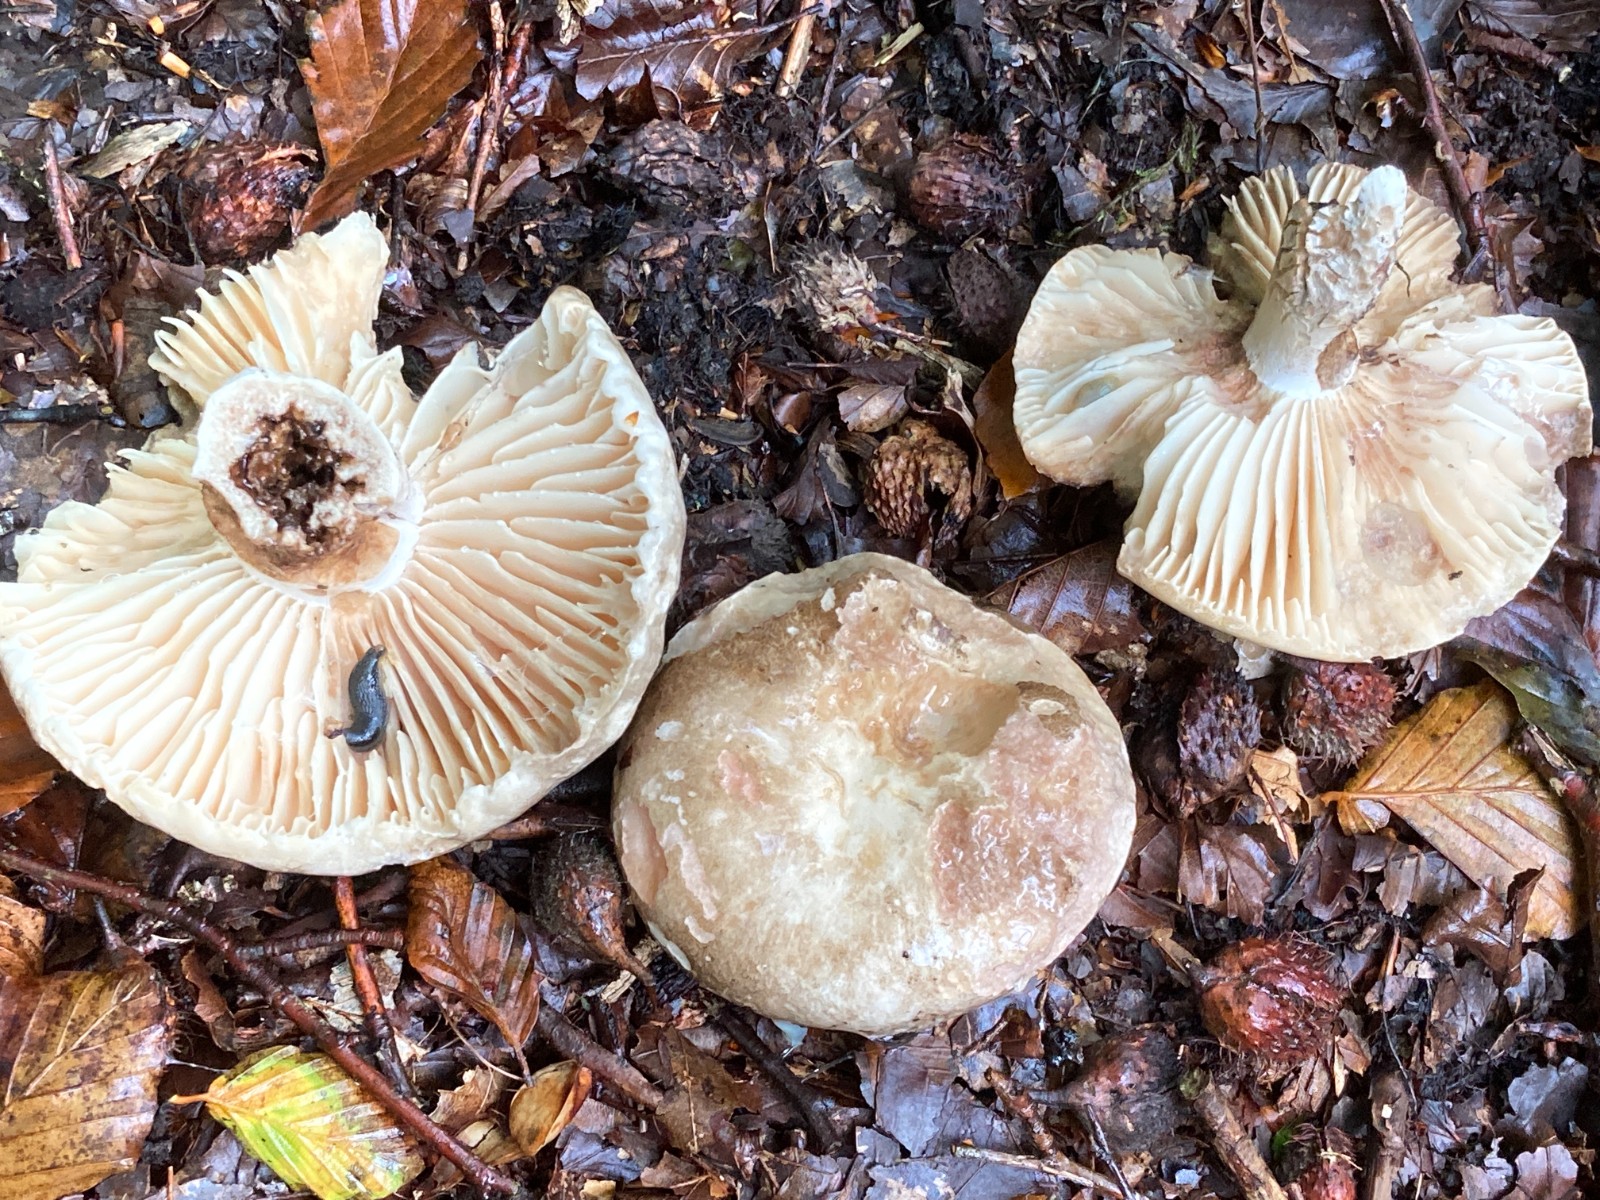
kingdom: Fungi
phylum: Basidiomycota
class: Agaricomycetes
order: Russulales
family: Russulaceae
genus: Russula
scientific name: Russula adusta
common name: sværtende skørhat
